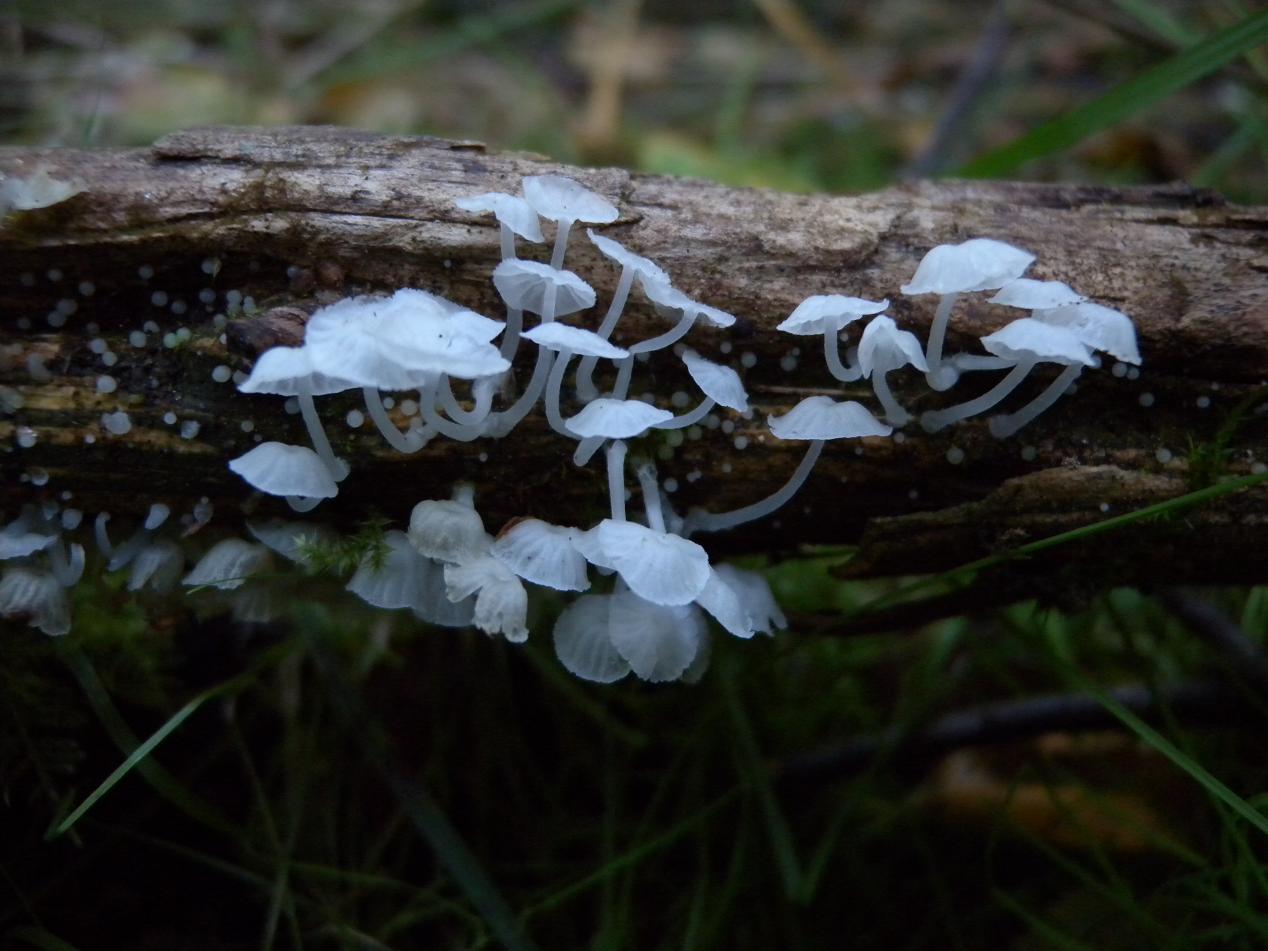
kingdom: Fungi
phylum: Basidiomycota
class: Agaricomycetes
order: Agaricales
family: Tricholomataceae
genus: Delicatula
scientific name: Delicatula integrella
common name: slørhuesvamp
